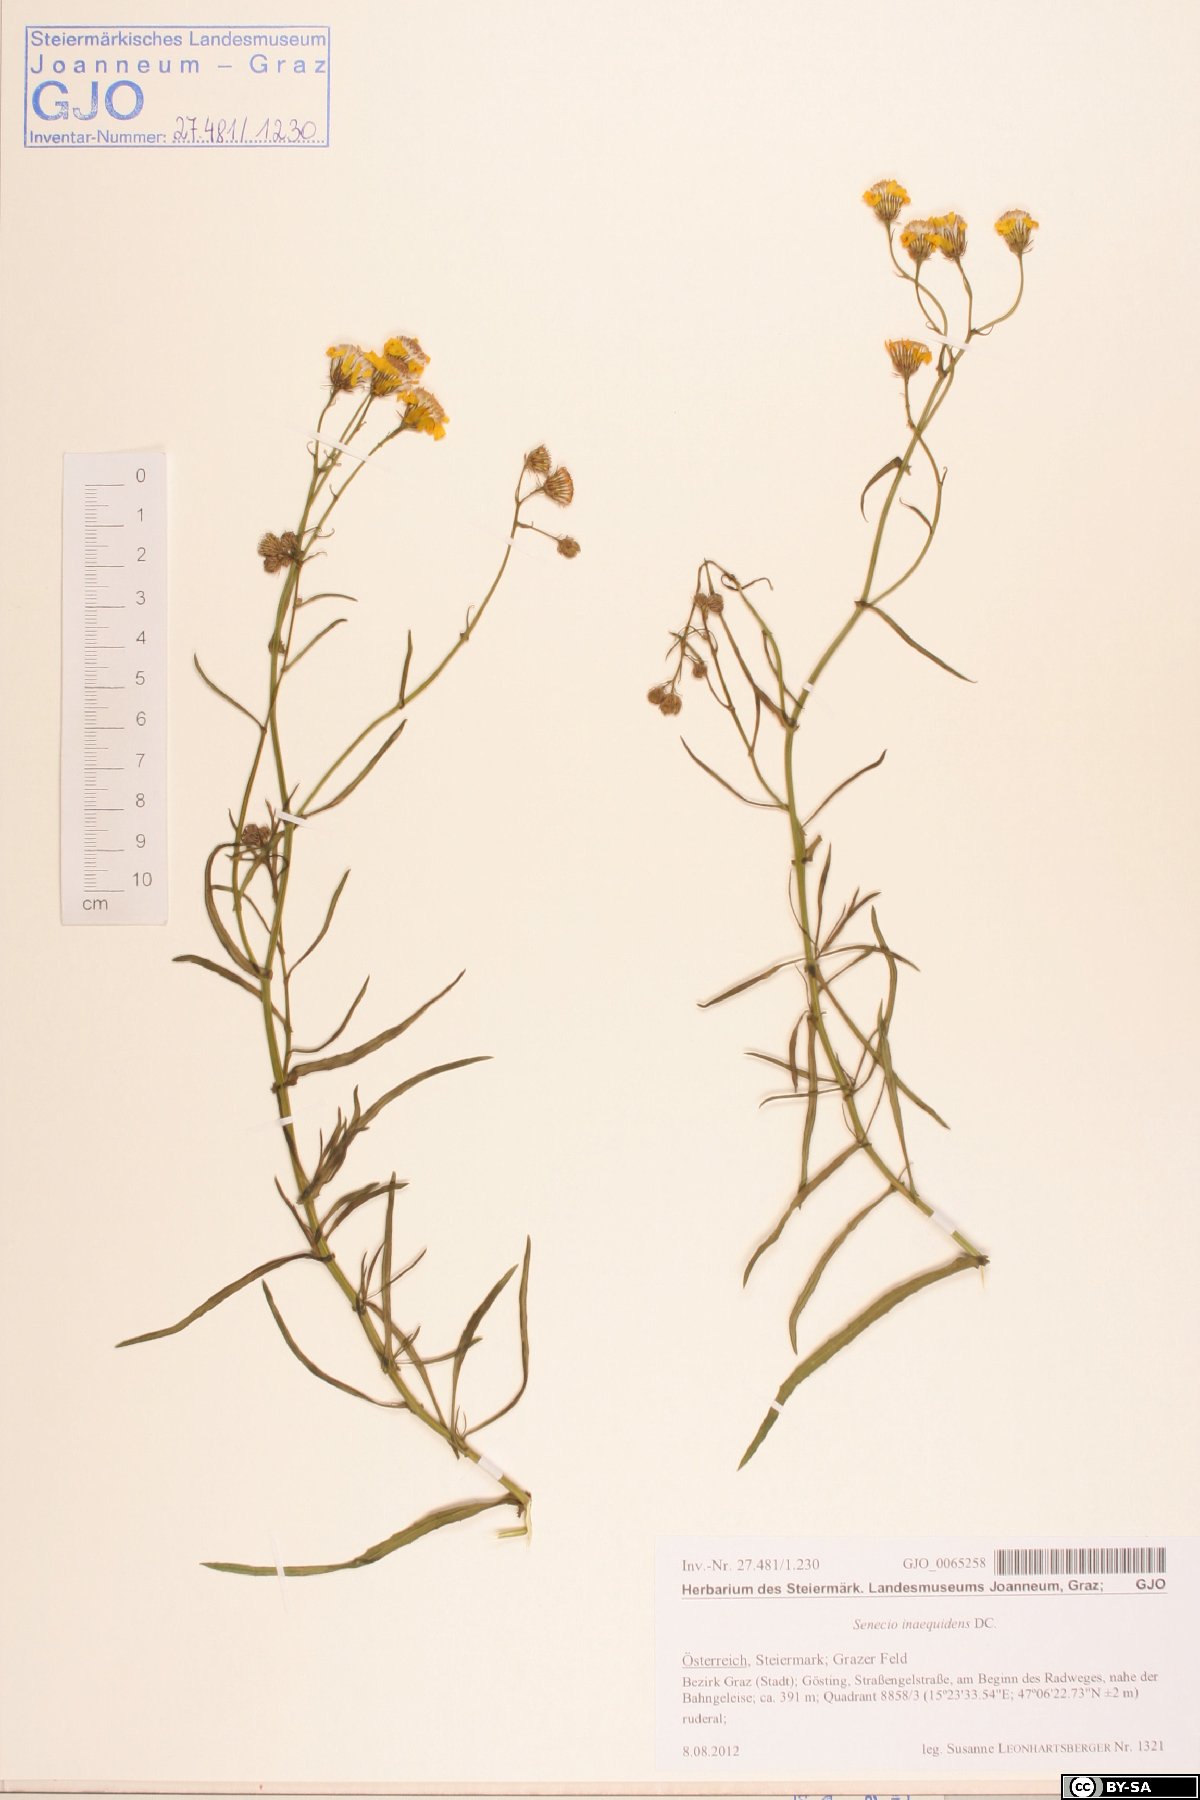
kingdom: Plantae
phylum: Tracheophyta
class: Magnoliopsida
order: Asterales
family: Asteraceae
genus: Senecio
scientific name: Senecio inaequidens
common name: Narrow-leaved ragwort
